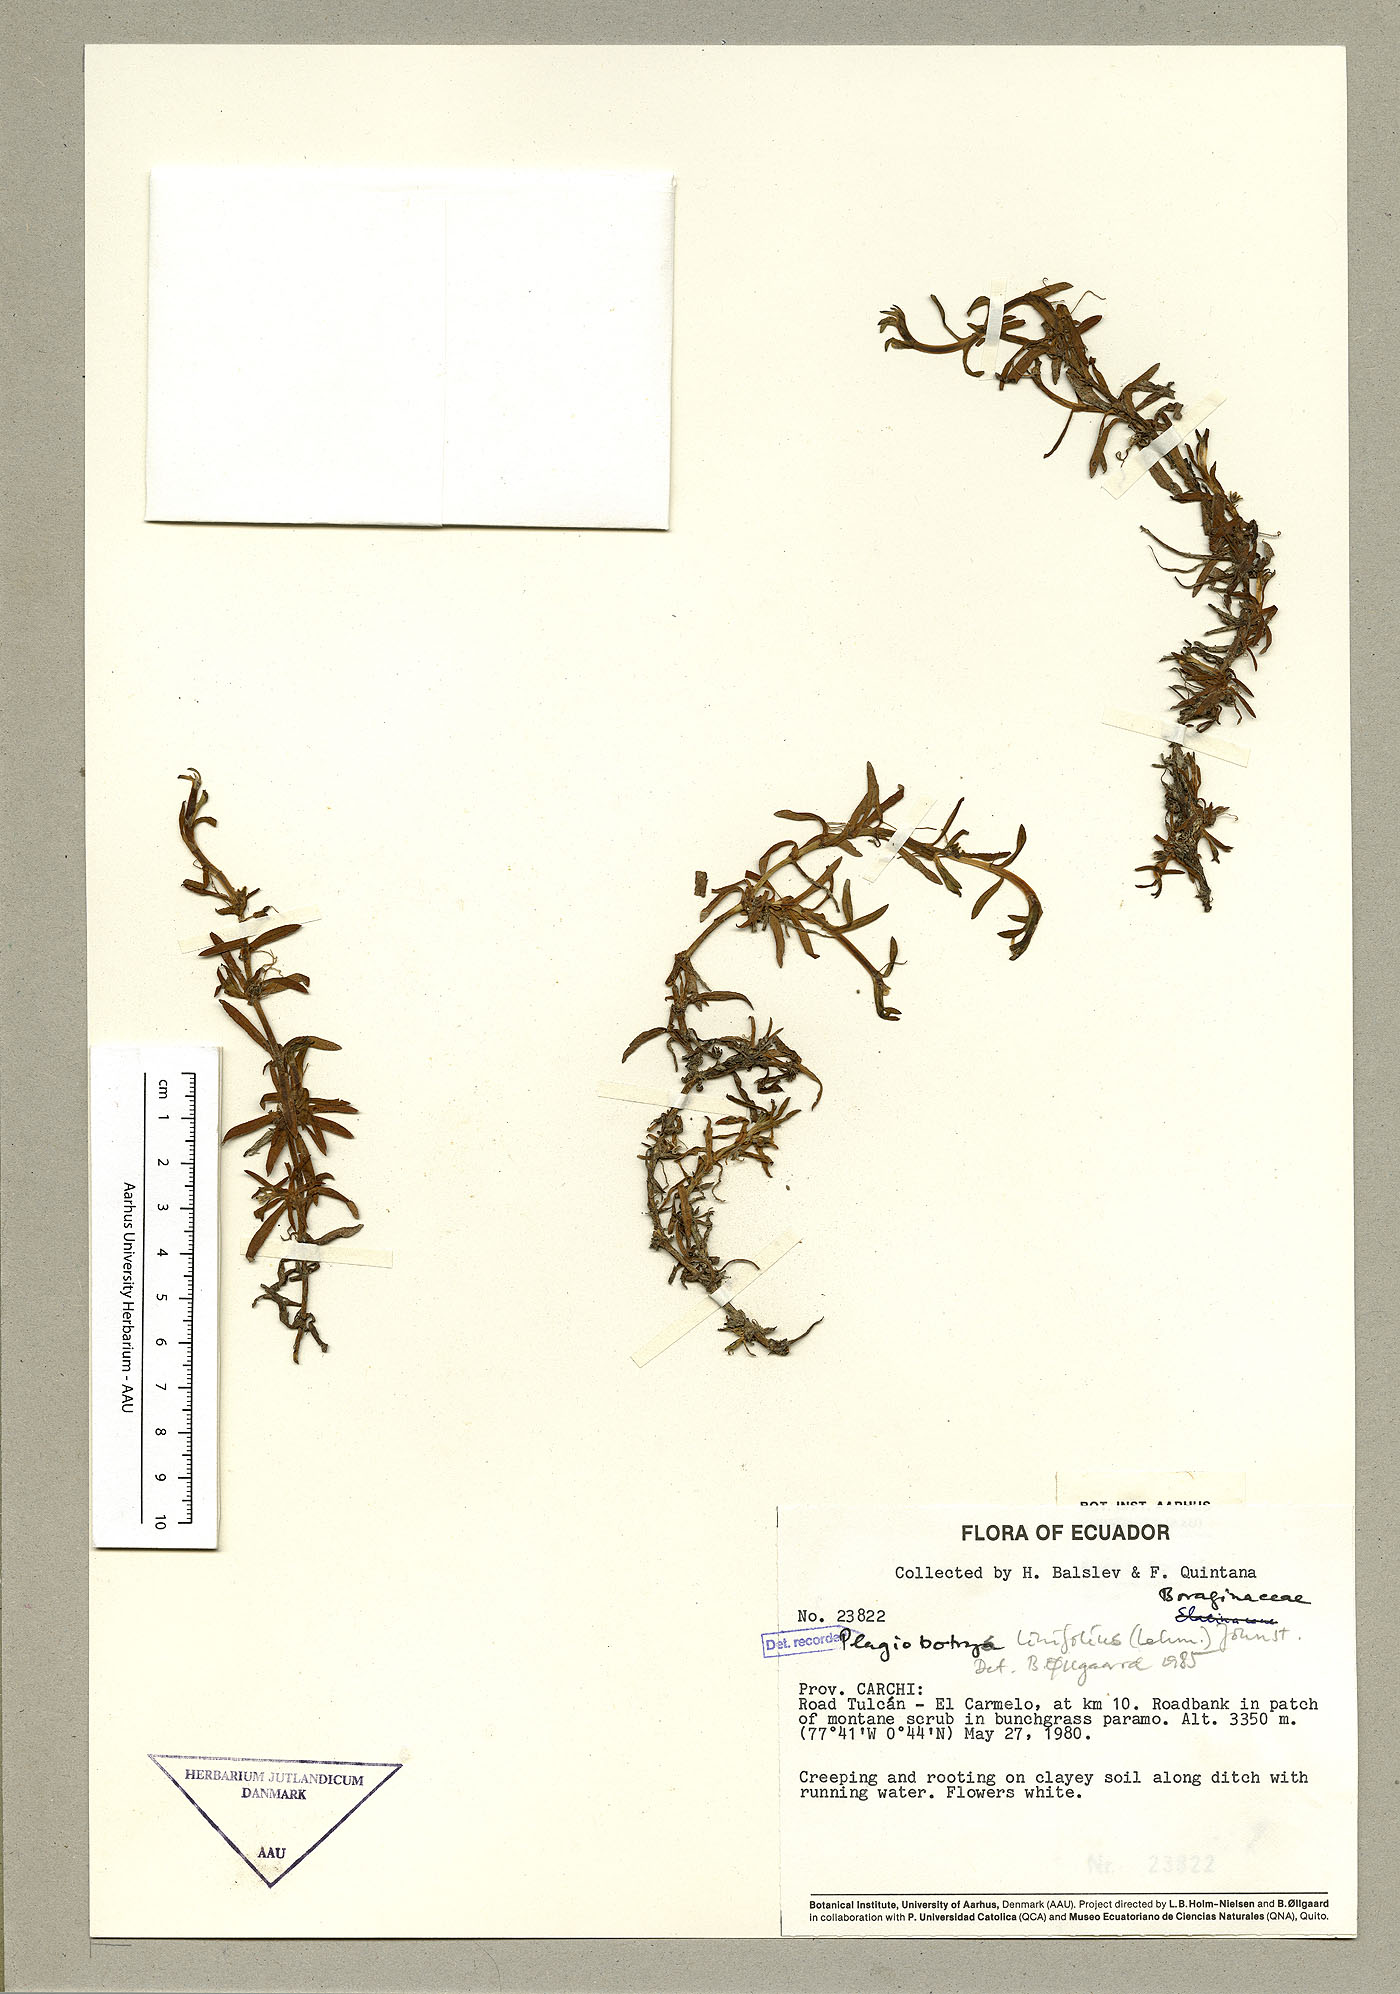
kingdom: Plantae
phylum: Tracheophyta
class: Magnoliopsida
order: Boraginales
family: Boraginaceae
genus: Plagiobothrys
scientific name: Plagiobothrys linifolius
